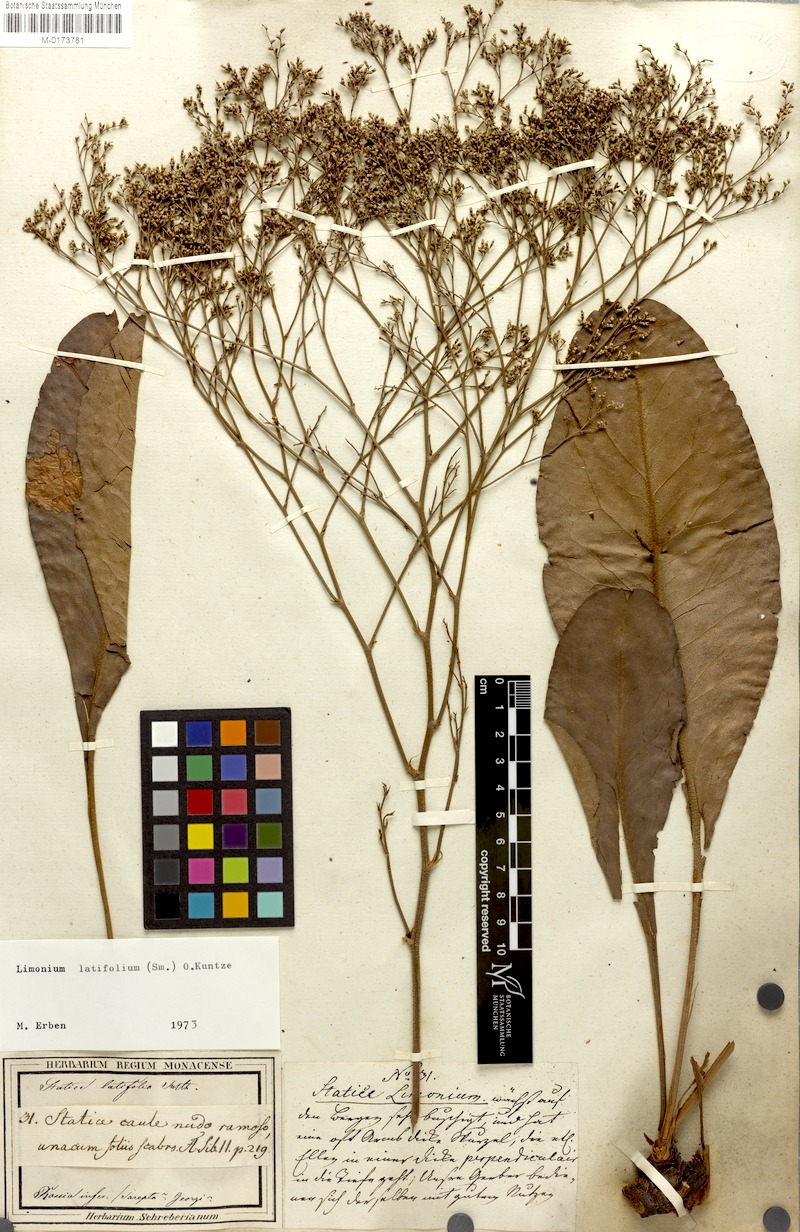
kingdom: Plantae
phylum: Tracheophyta
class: Magnoliopsida
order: Caryophyllales
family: Plumbaginaceae
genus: Limonium
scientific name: Limonium platyphyllum
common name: Florist's sea lavender
